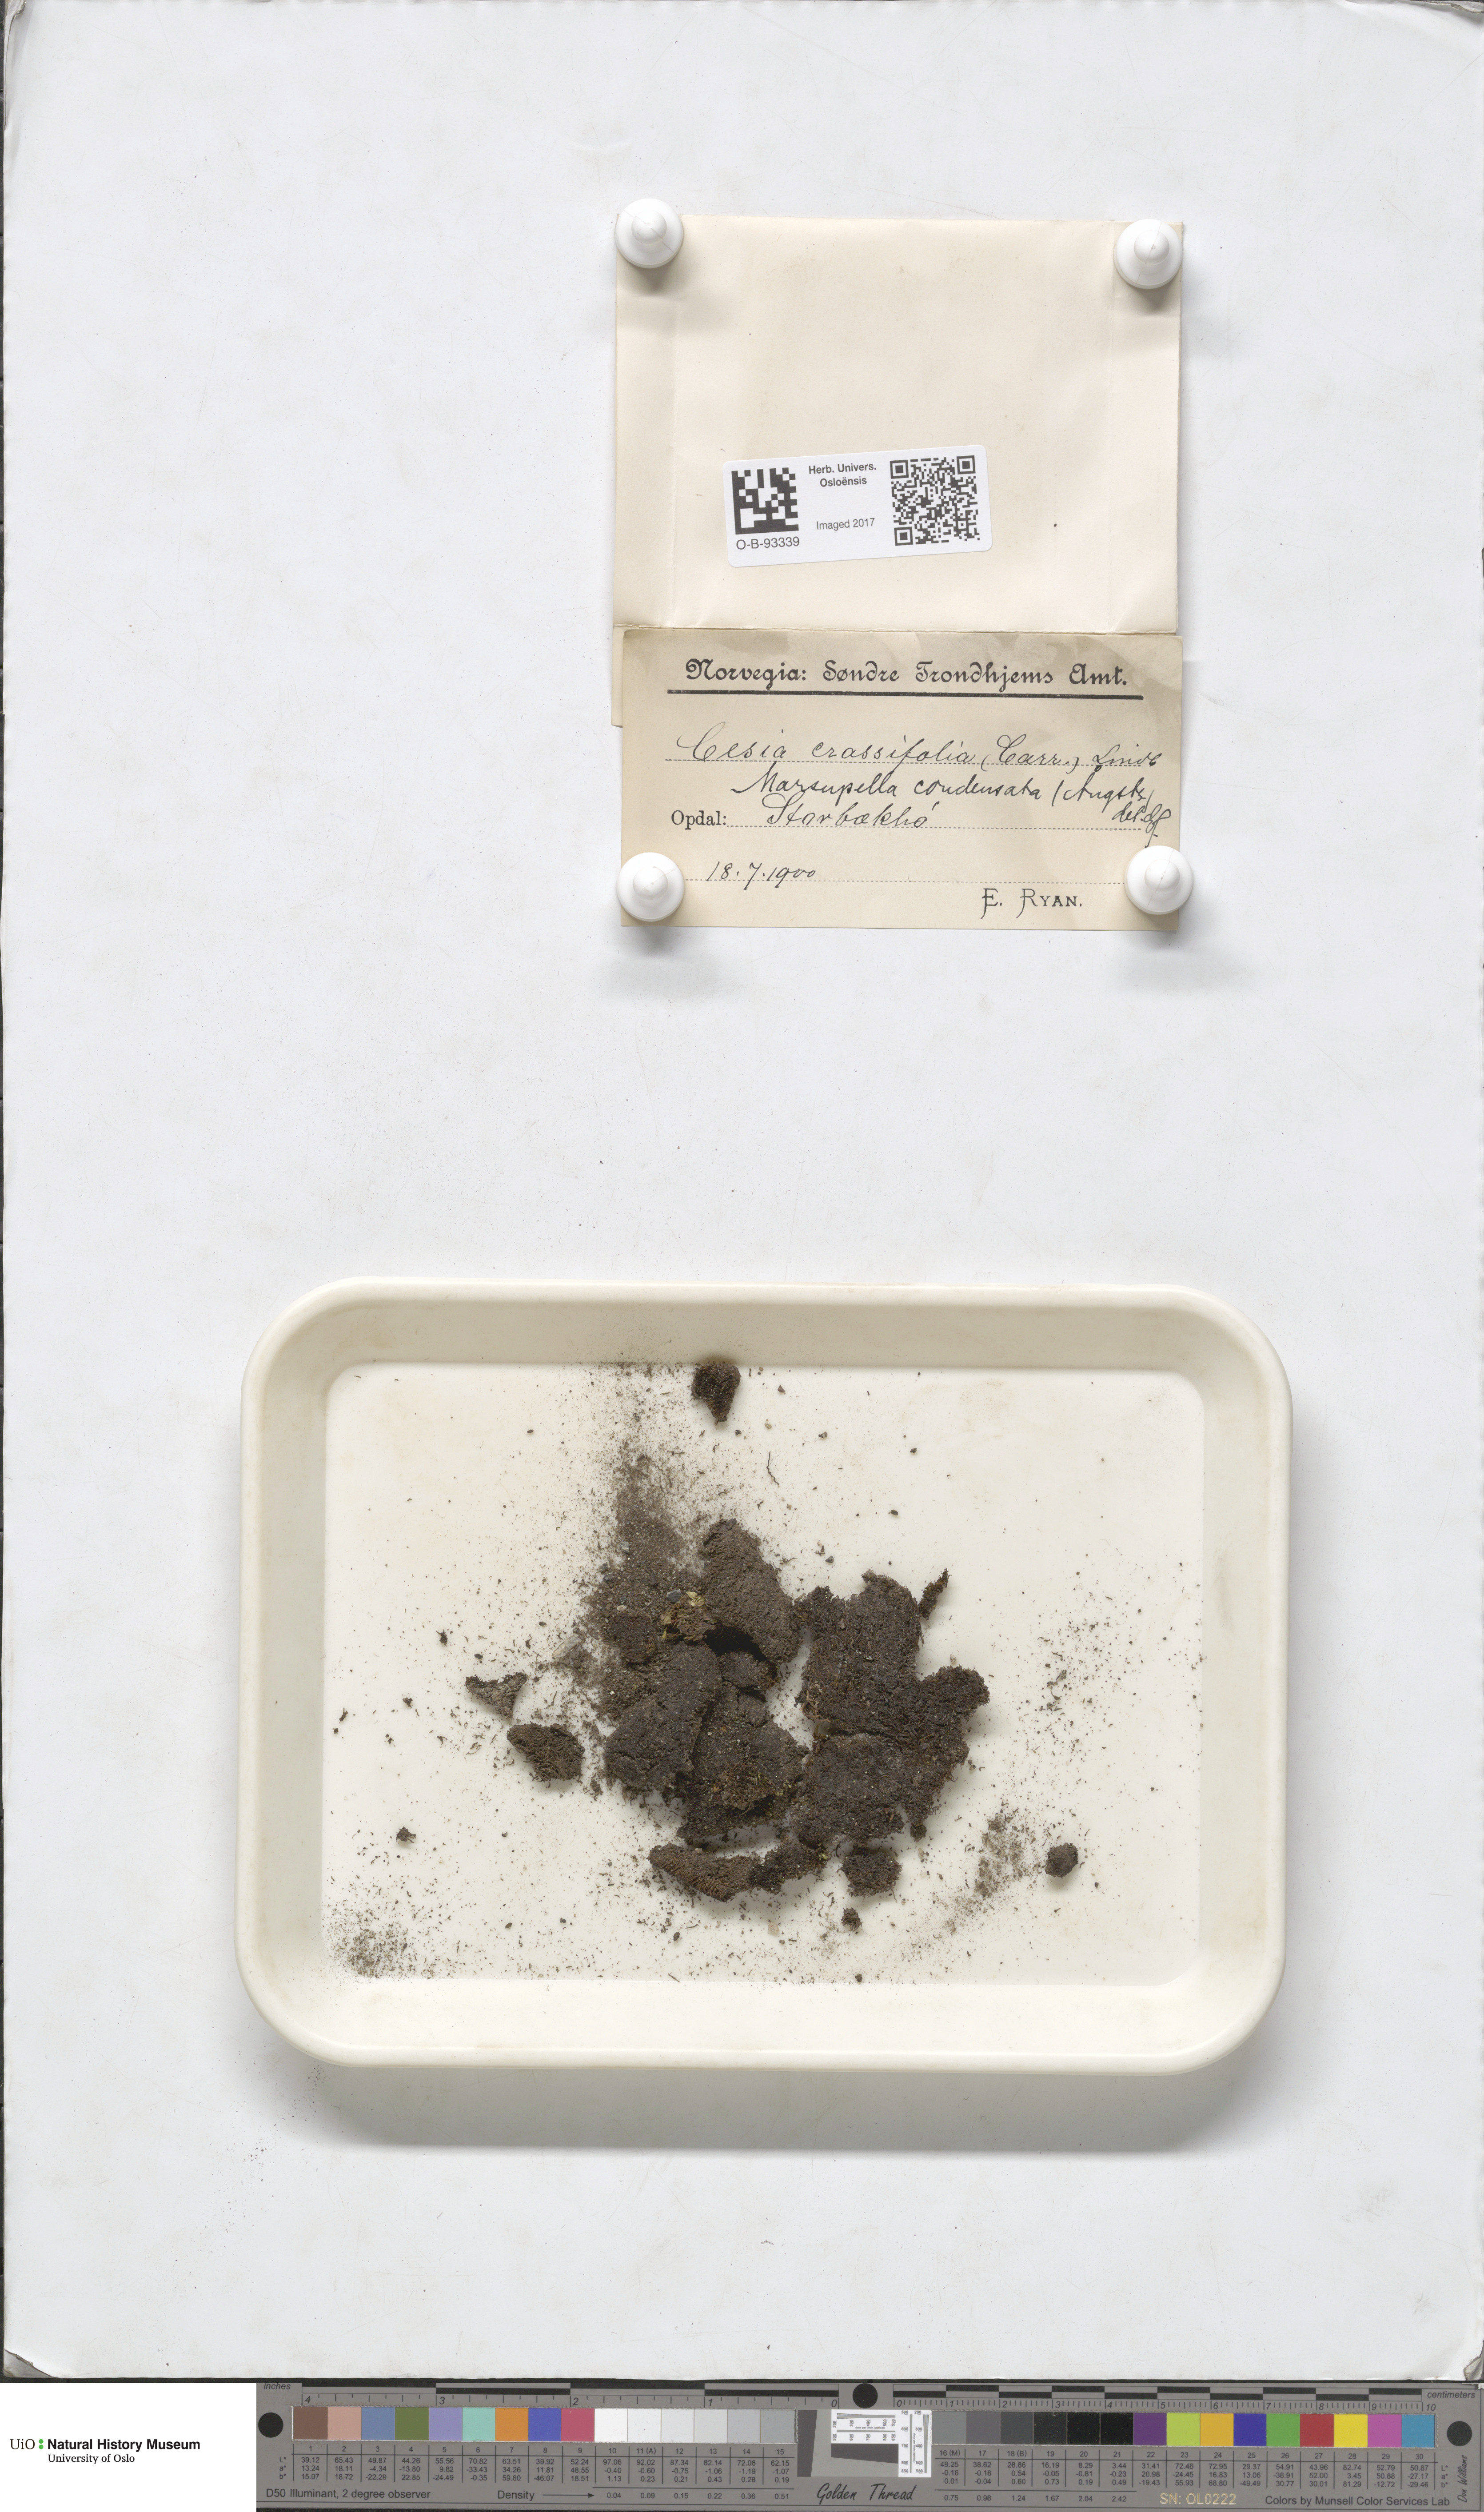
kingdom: Plantae
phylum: Marchantiophyta
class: Jungermanniopsida
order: Jungermanniales
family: Gymnomitriaceae
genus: Gymnomitrion
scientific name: Gymnomitrion brevissimum
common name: Snow rustwort
